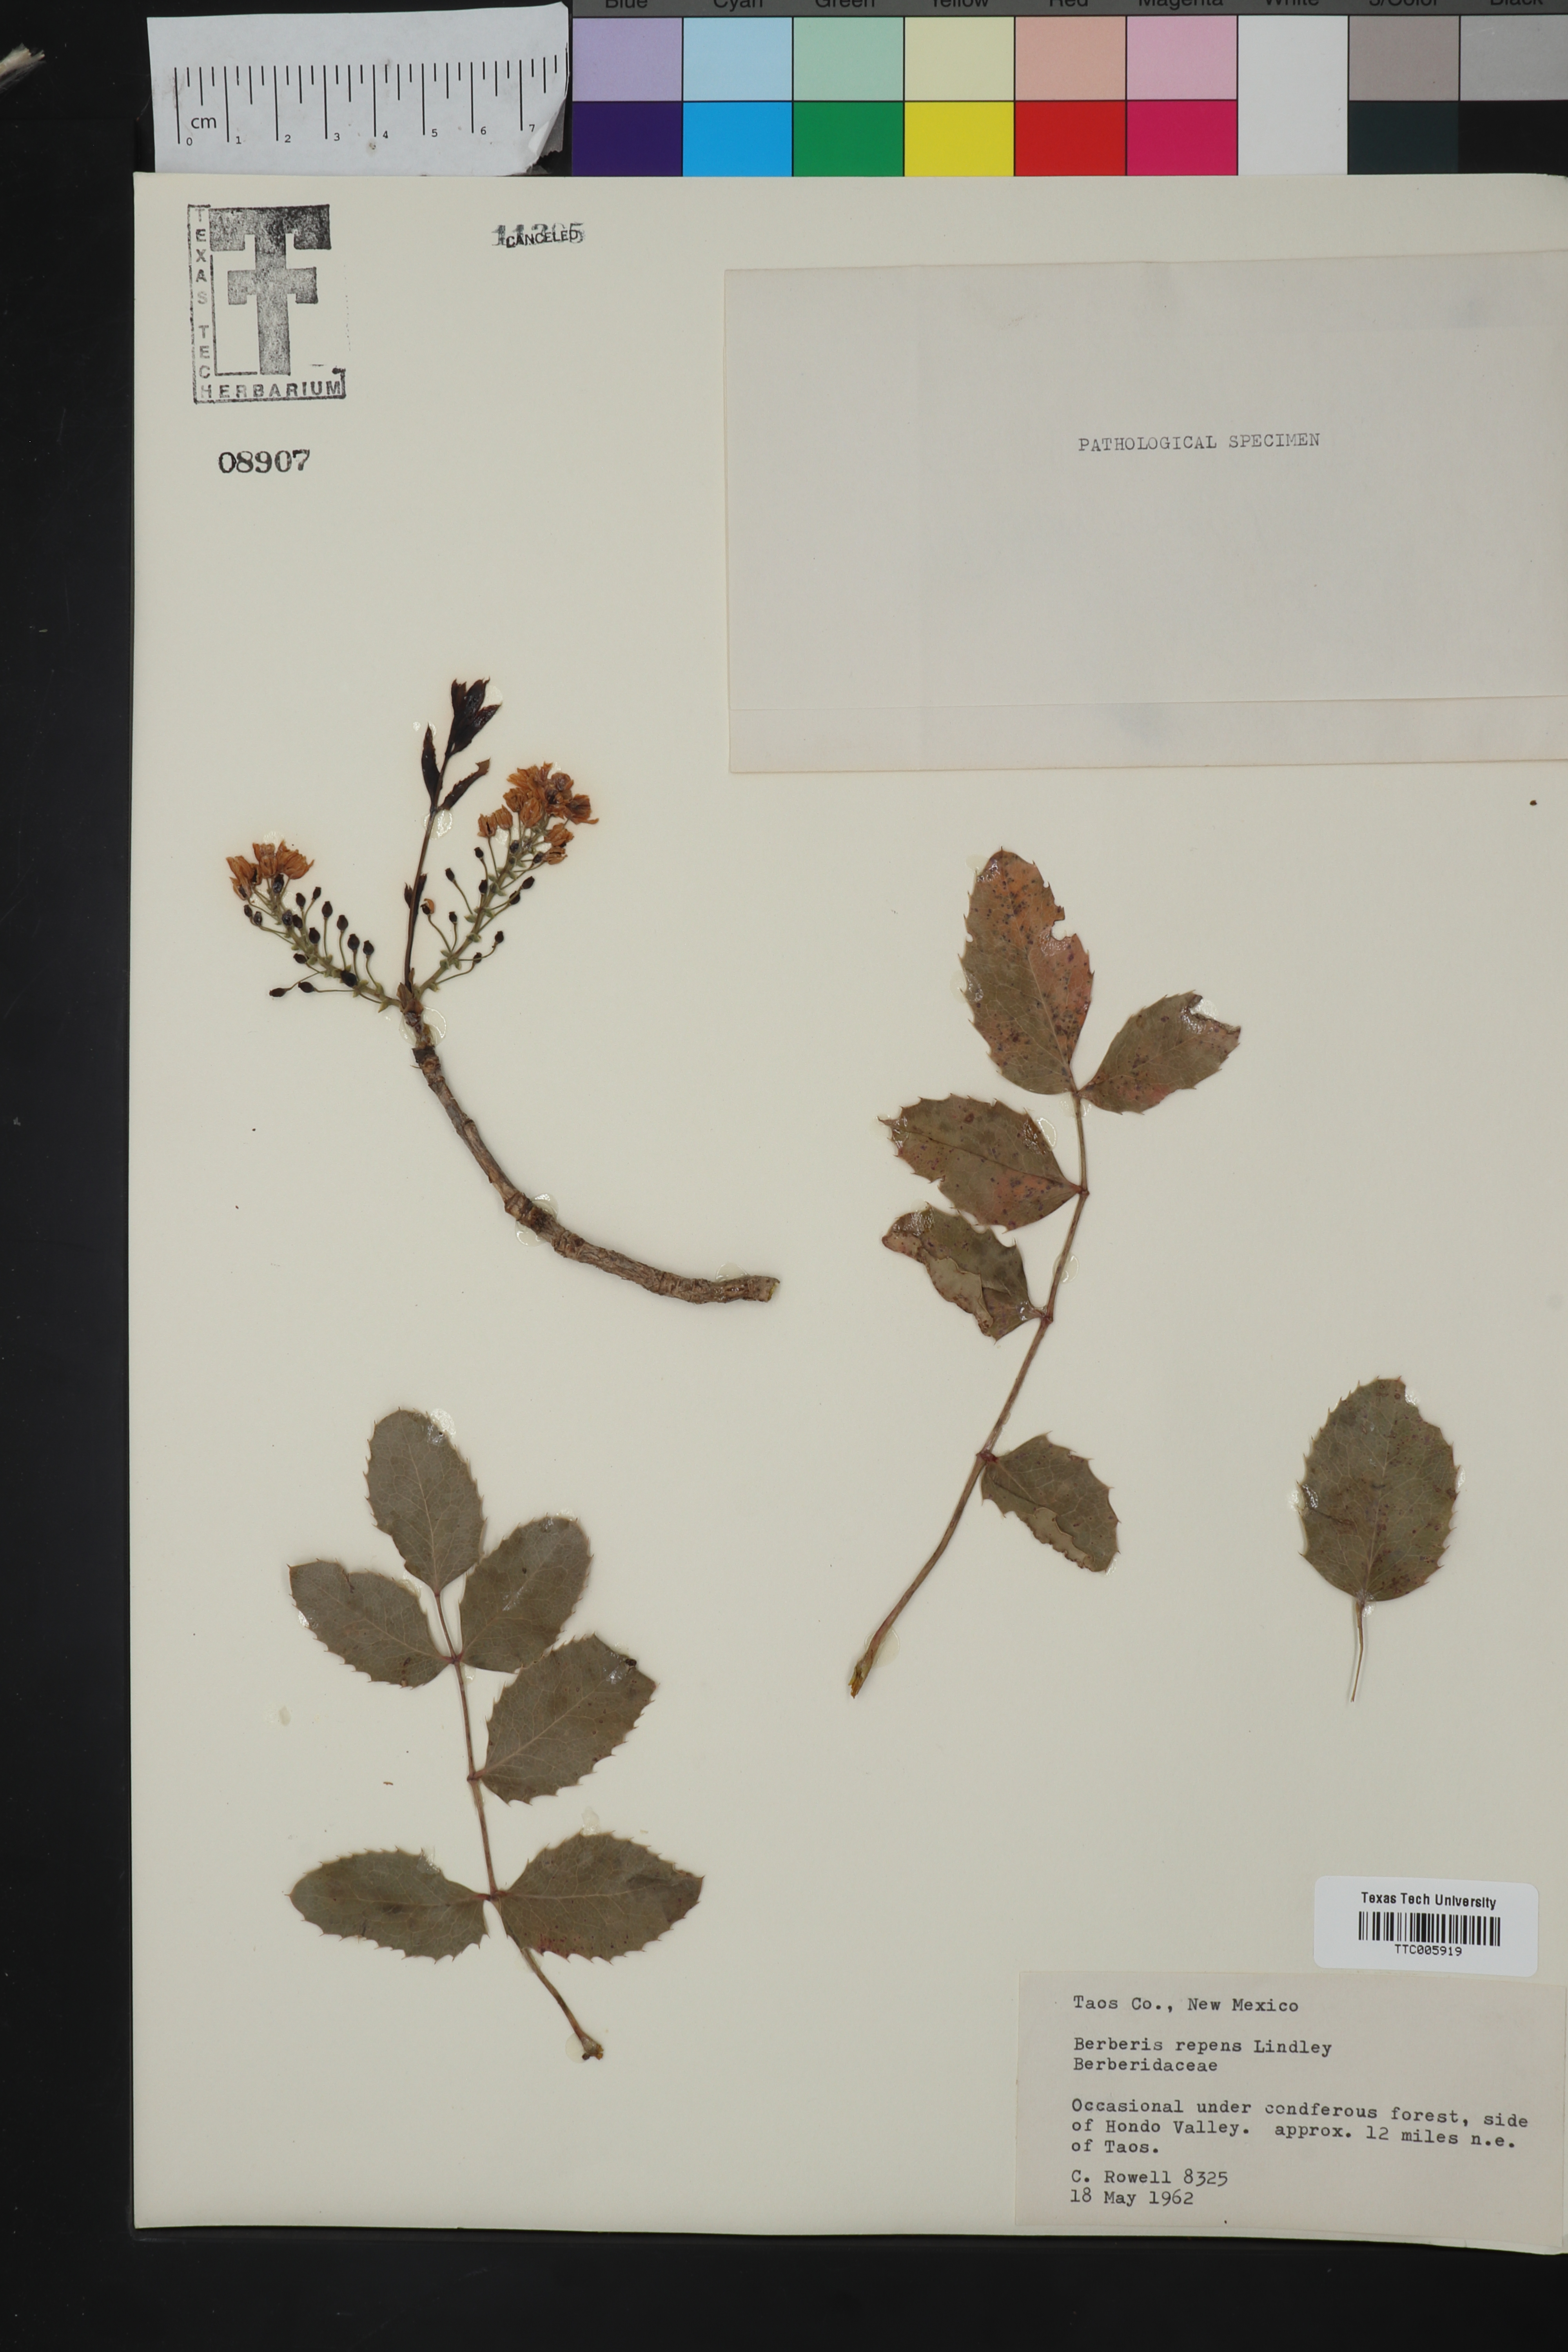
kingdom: Plantae
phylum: Tracheophyta
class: Magnoliopsida
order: Ranunculales
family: Berberidaceae
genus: Mahonia
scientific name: Mahonia repens
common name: Creeping oregon-grape
